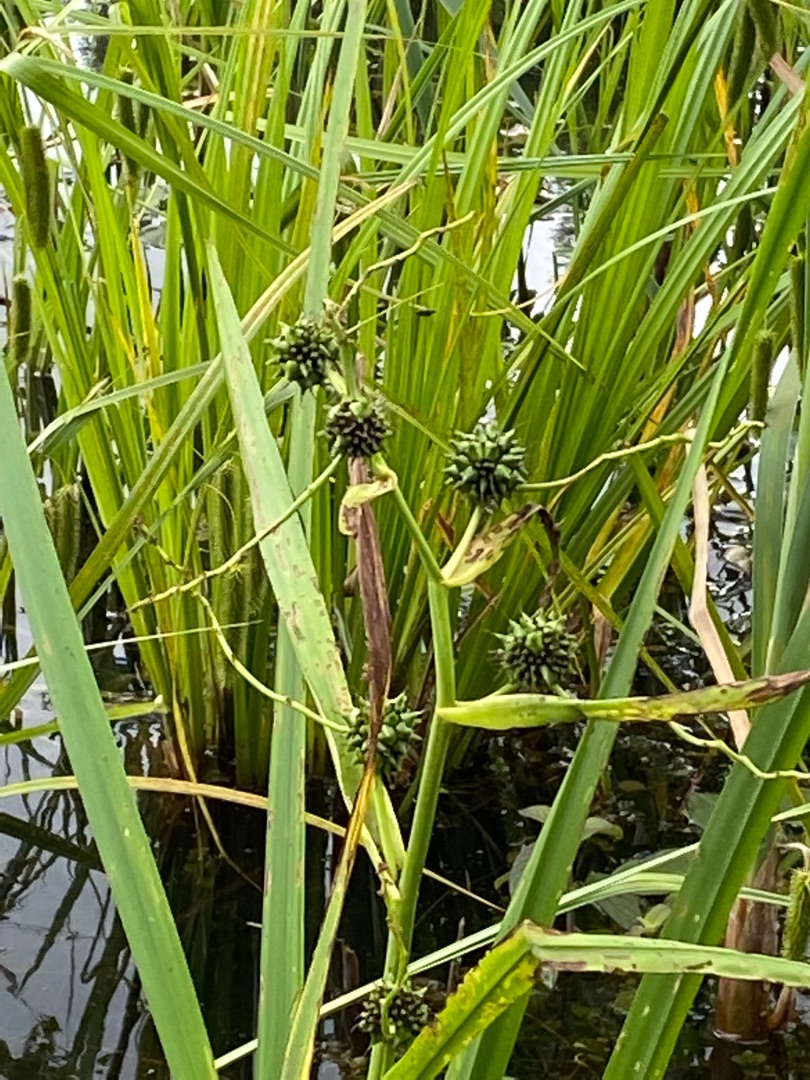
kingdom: Plantae
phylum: Tracheophyta
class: Liliopsida
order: Poales
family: Typhaceae
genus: Sparganium
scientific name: Sparganium erectum
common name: Grenet pindsvineknop
